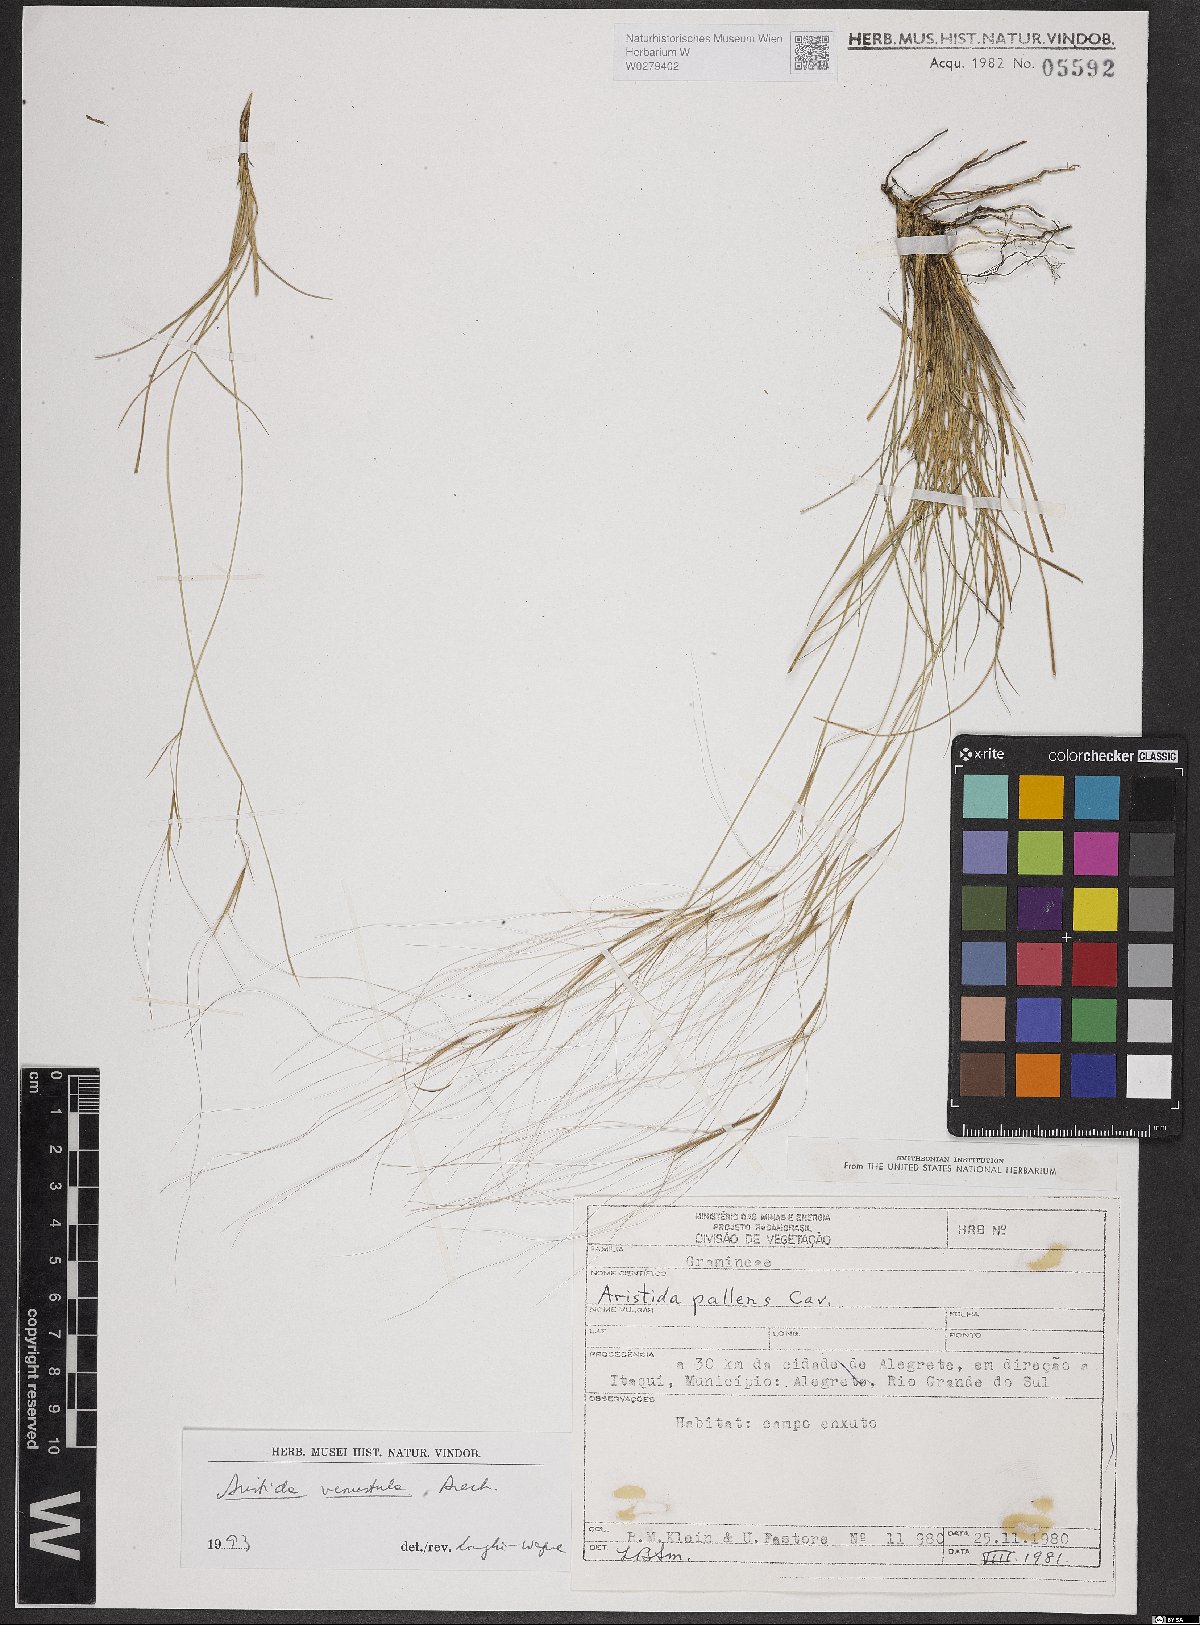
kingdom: Plantae
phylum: Tracheophyta
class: Liliopsida
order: Poales
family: Poaceae
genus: Aristida
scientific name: Aristida venustula
